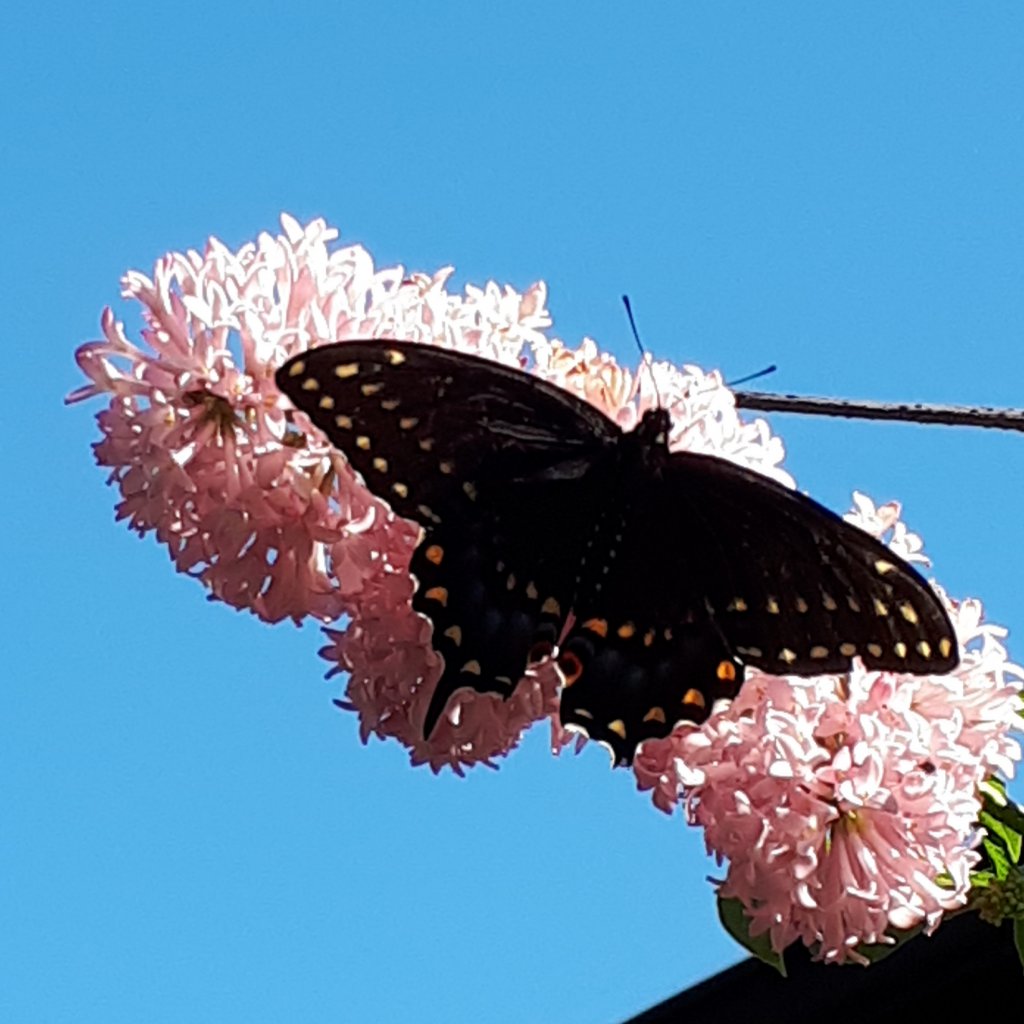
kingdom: Animalia
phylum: Arthropoda
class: Insecta
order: Lepidoptera
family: Papilionidae
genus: Papilio
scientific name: Papilio polyxenes
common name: Black Swallowtail
